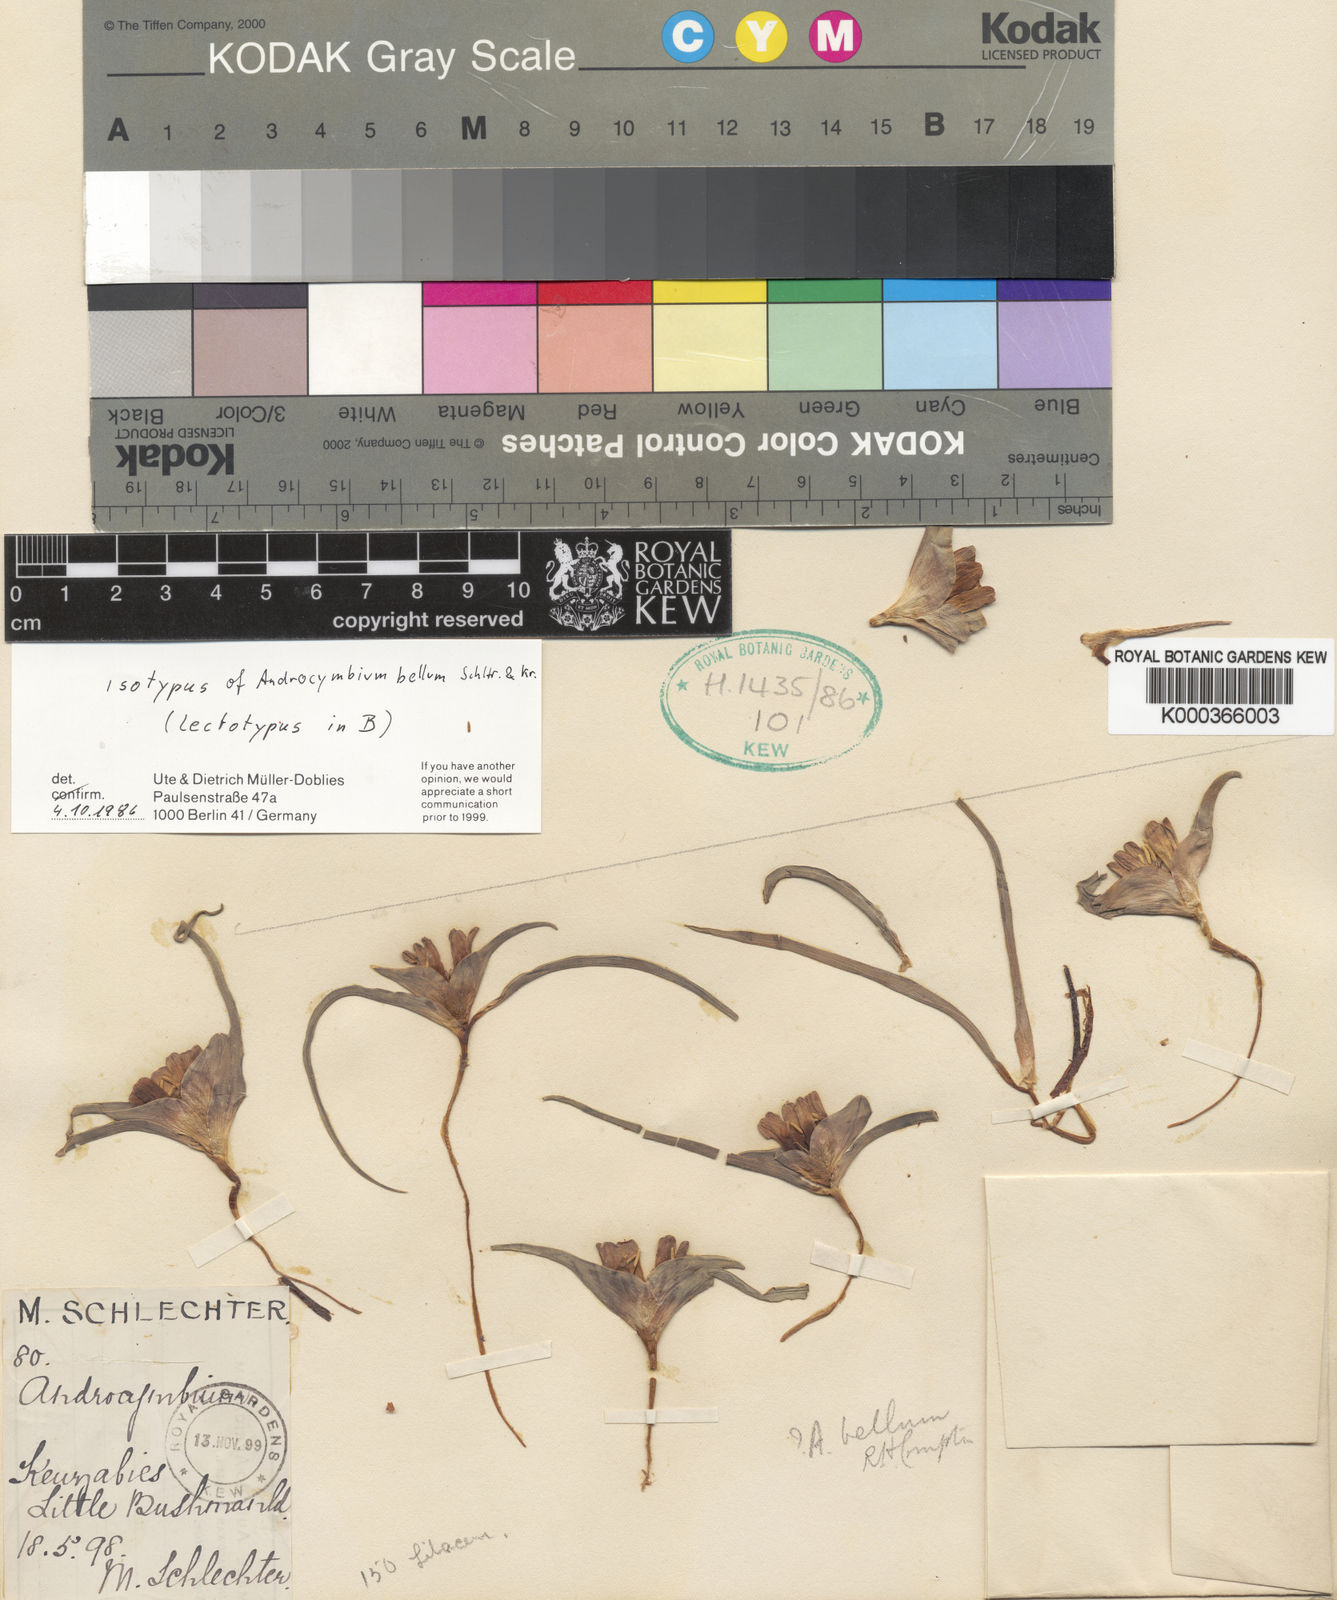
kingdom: Plantae
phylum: Tracheophyta
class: Liliopsida
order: Liliales
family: Colchicaceae
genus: Colchicum
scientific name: Colchicum bellum
